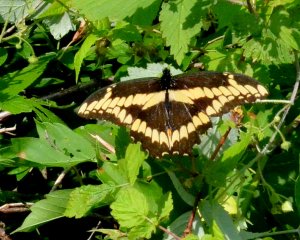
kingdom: Animalia
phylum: Arthropoda
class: Insecta
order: Lepidoptera
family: Papilionidae
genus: Papilio
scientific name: Papilio cresphontes
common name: Eastern Giant Swallowtail
